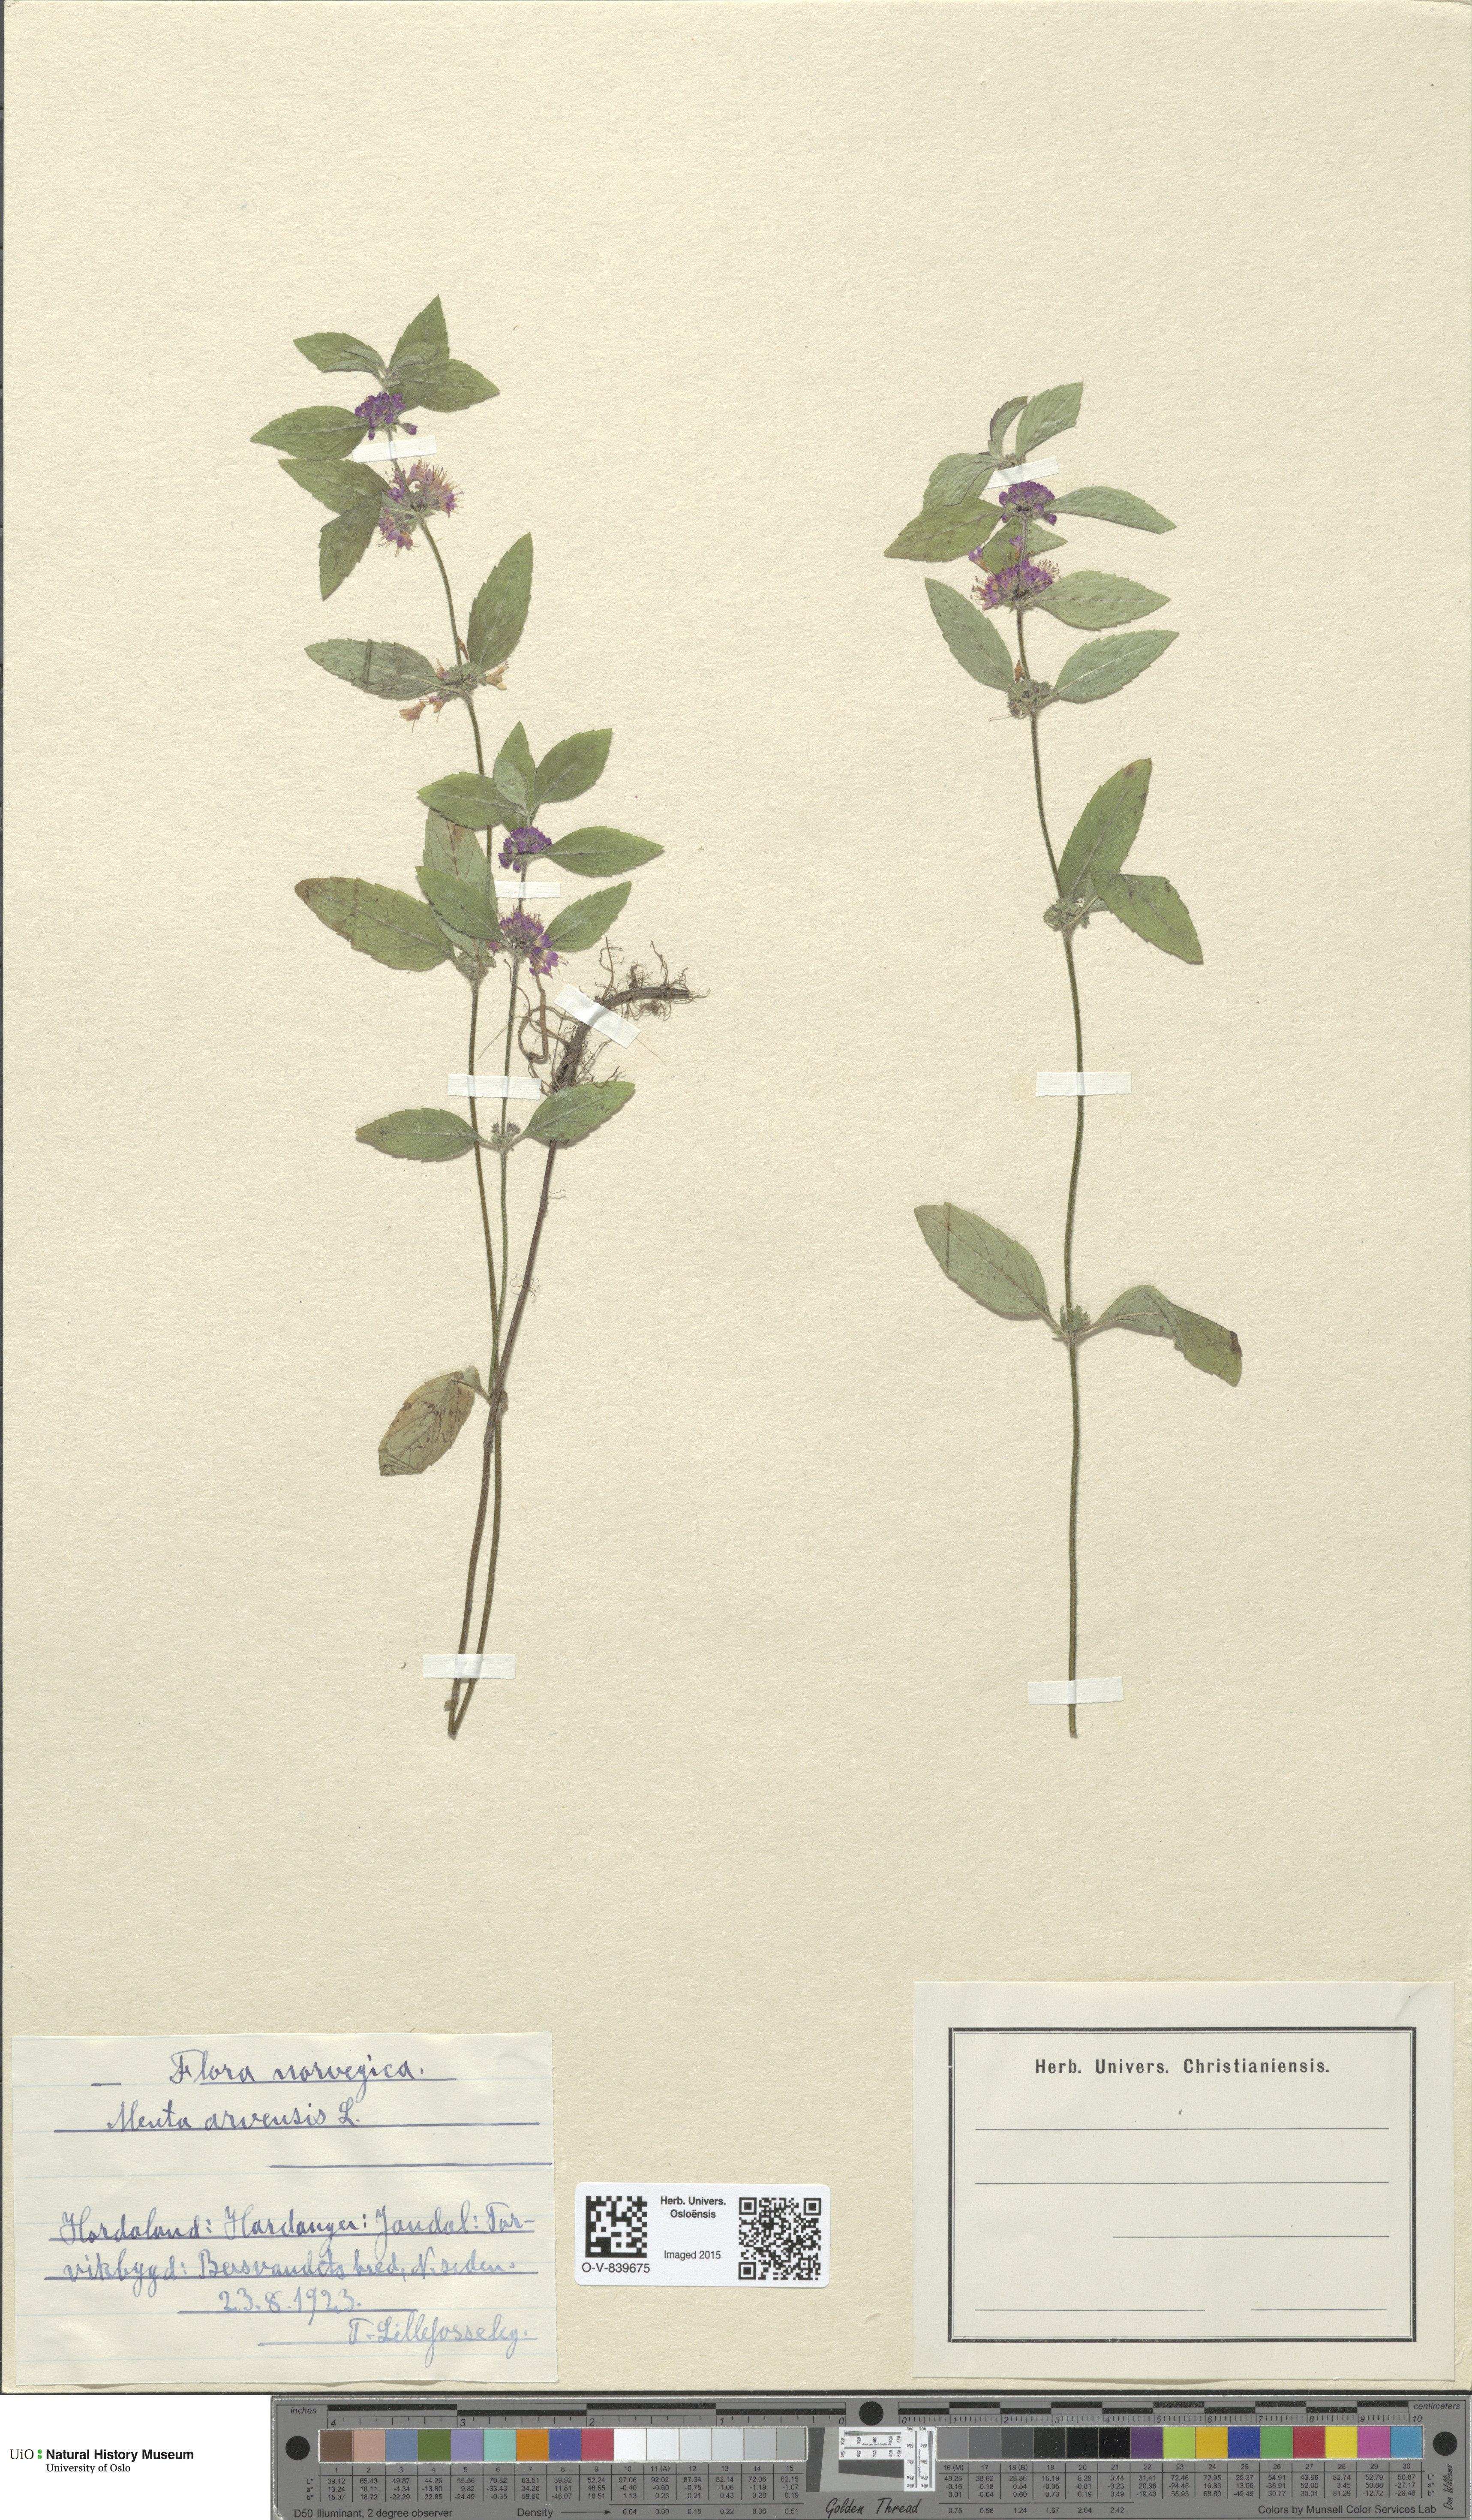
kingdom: Plantae
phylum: Tracheophyta
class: Magnoliopsida
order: Lamiales
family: Lamiaceae
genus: Mentha
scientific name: Mentha arvensis
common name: Corn mint
